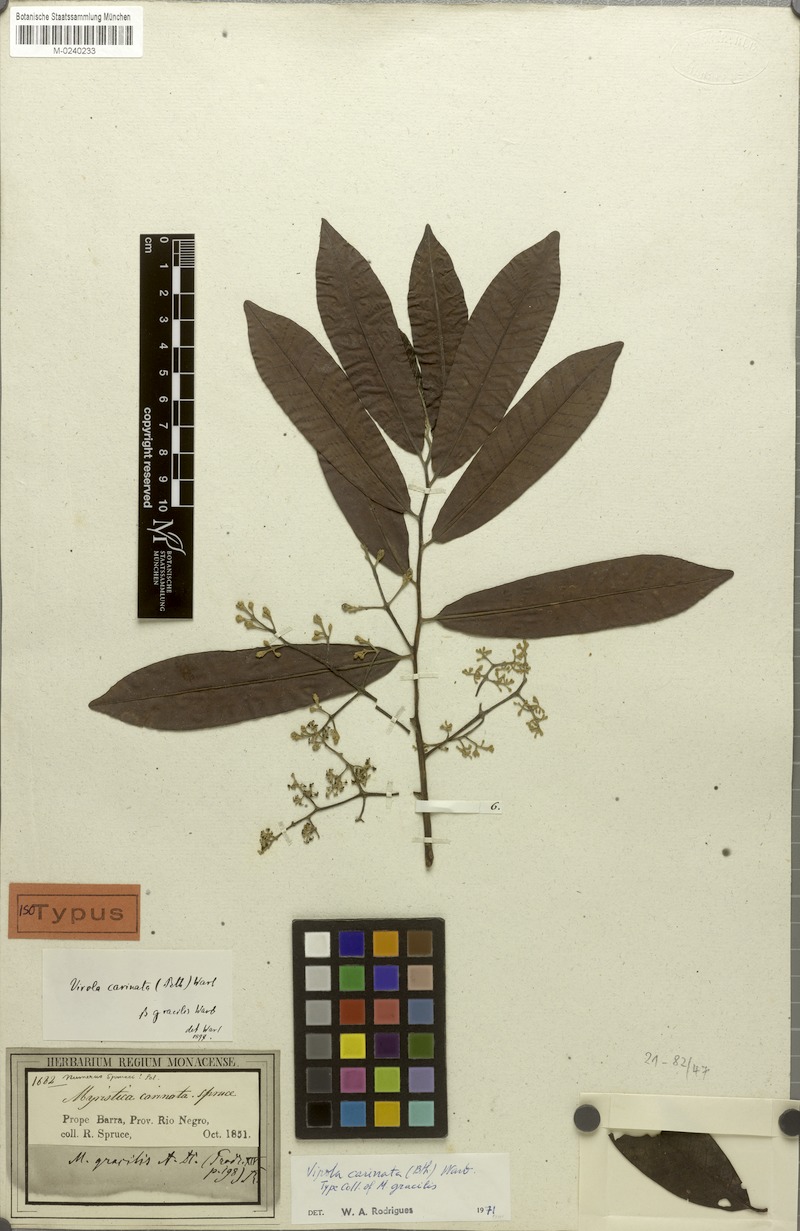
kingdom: Plantae
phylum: Tracheophyta
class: Magnoliopsida
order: Magnoliales
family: Myristicaceae
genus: Virola
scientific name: Virola surinamensis
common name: Baboonwood
